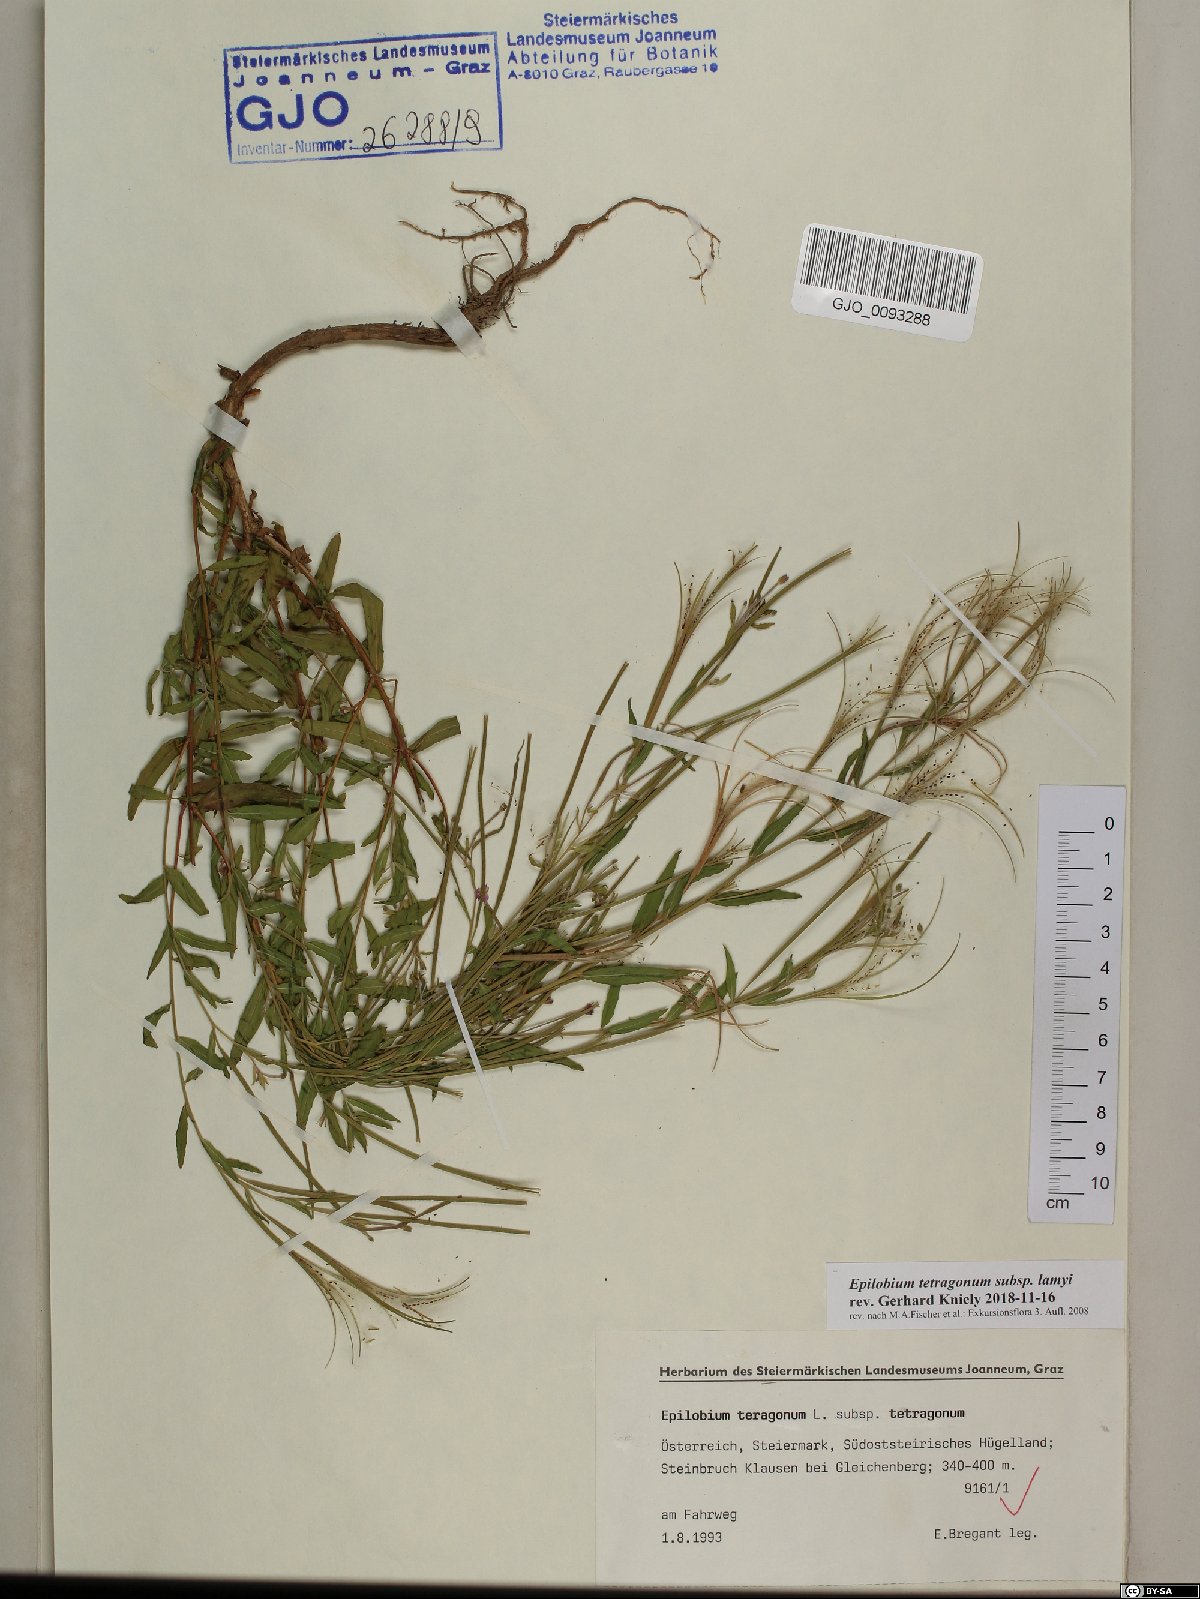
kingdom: Plantae
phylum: Tracheophyta
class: Magnoliopsida
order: Myrtales
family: Onagraceae
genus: Epilobium
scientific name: Epilobium lamyi
